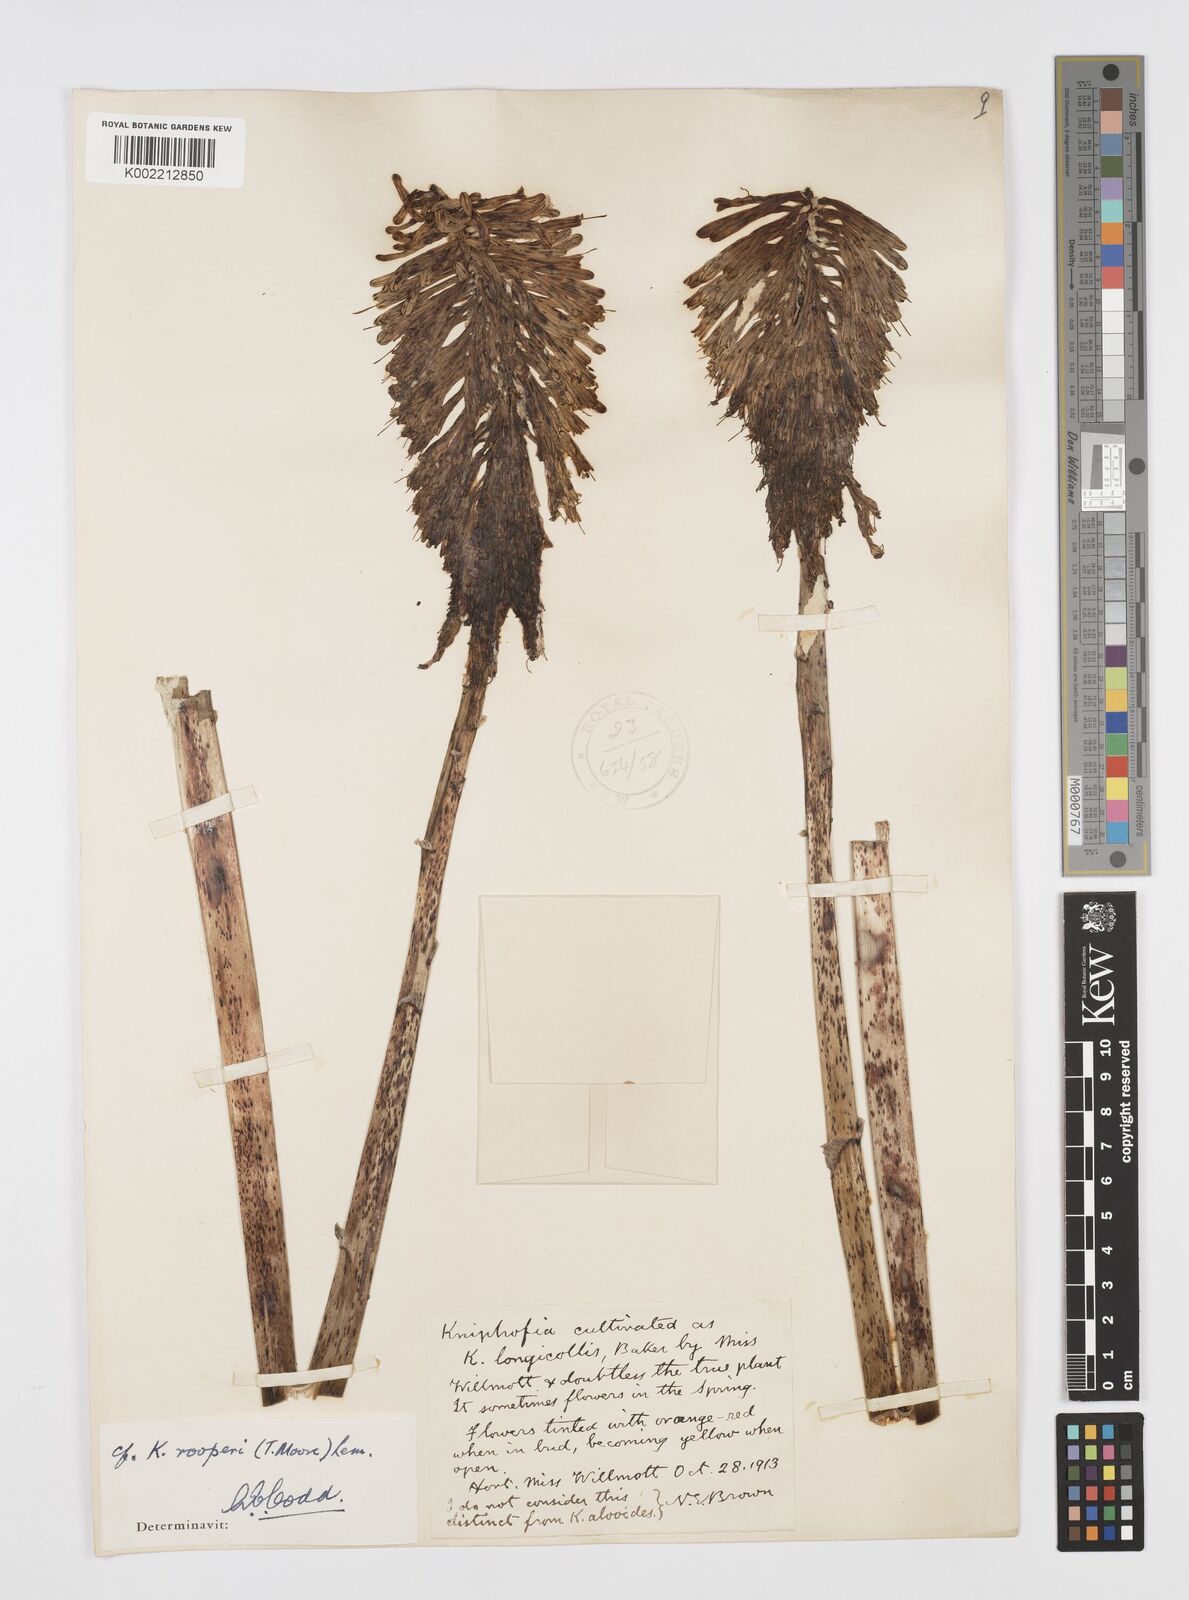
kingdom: Plantae
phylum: Tracheophyta
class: Liliopsida
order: Asparagales
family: Asphodelaceae
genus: Kniphofia
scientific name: Kniphofia rooperi
